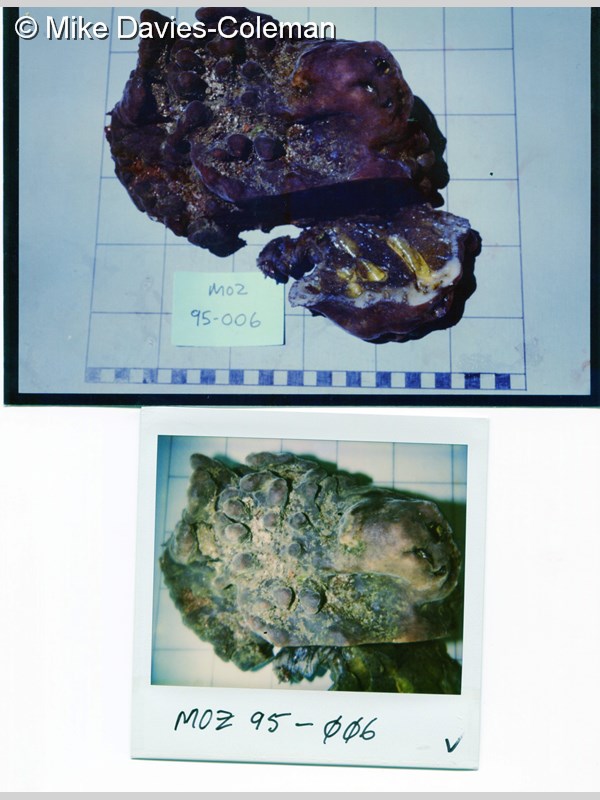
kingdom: Animalia
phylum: Porifera
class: Demospongiae
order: Clionaida
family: Spirastrellidae
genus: Spirastrella
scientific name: Spirastrella
